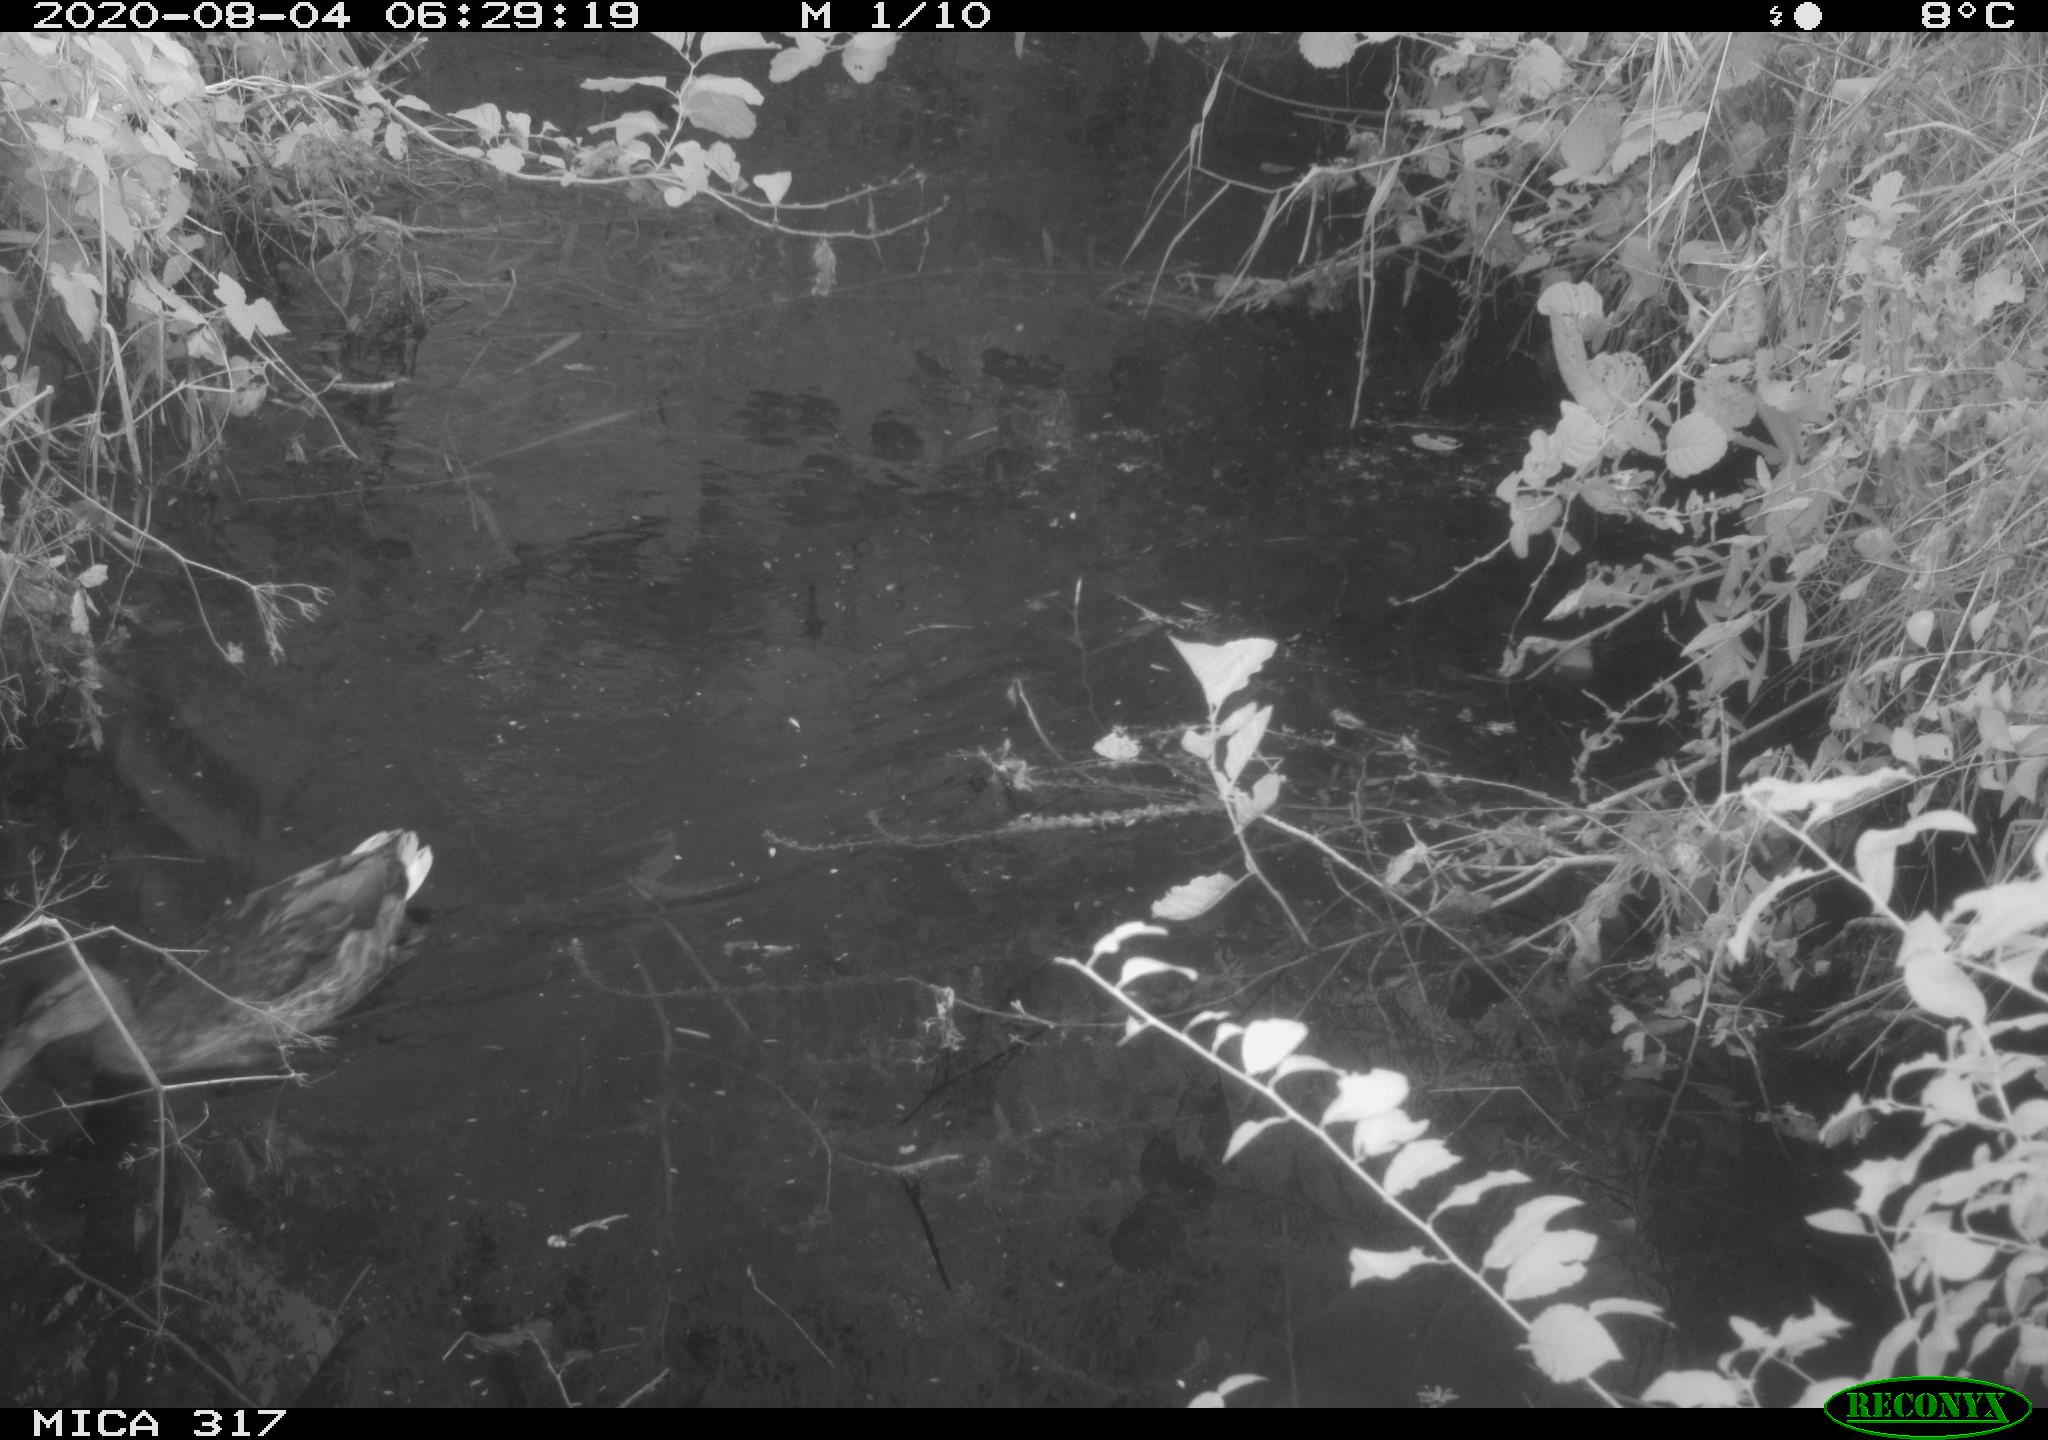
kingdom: Animalia
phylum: Chordata
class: Aves
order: Anseriformes
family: Anatidae
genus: Anas
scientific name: Anas platyrhynchos
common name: Mallard
